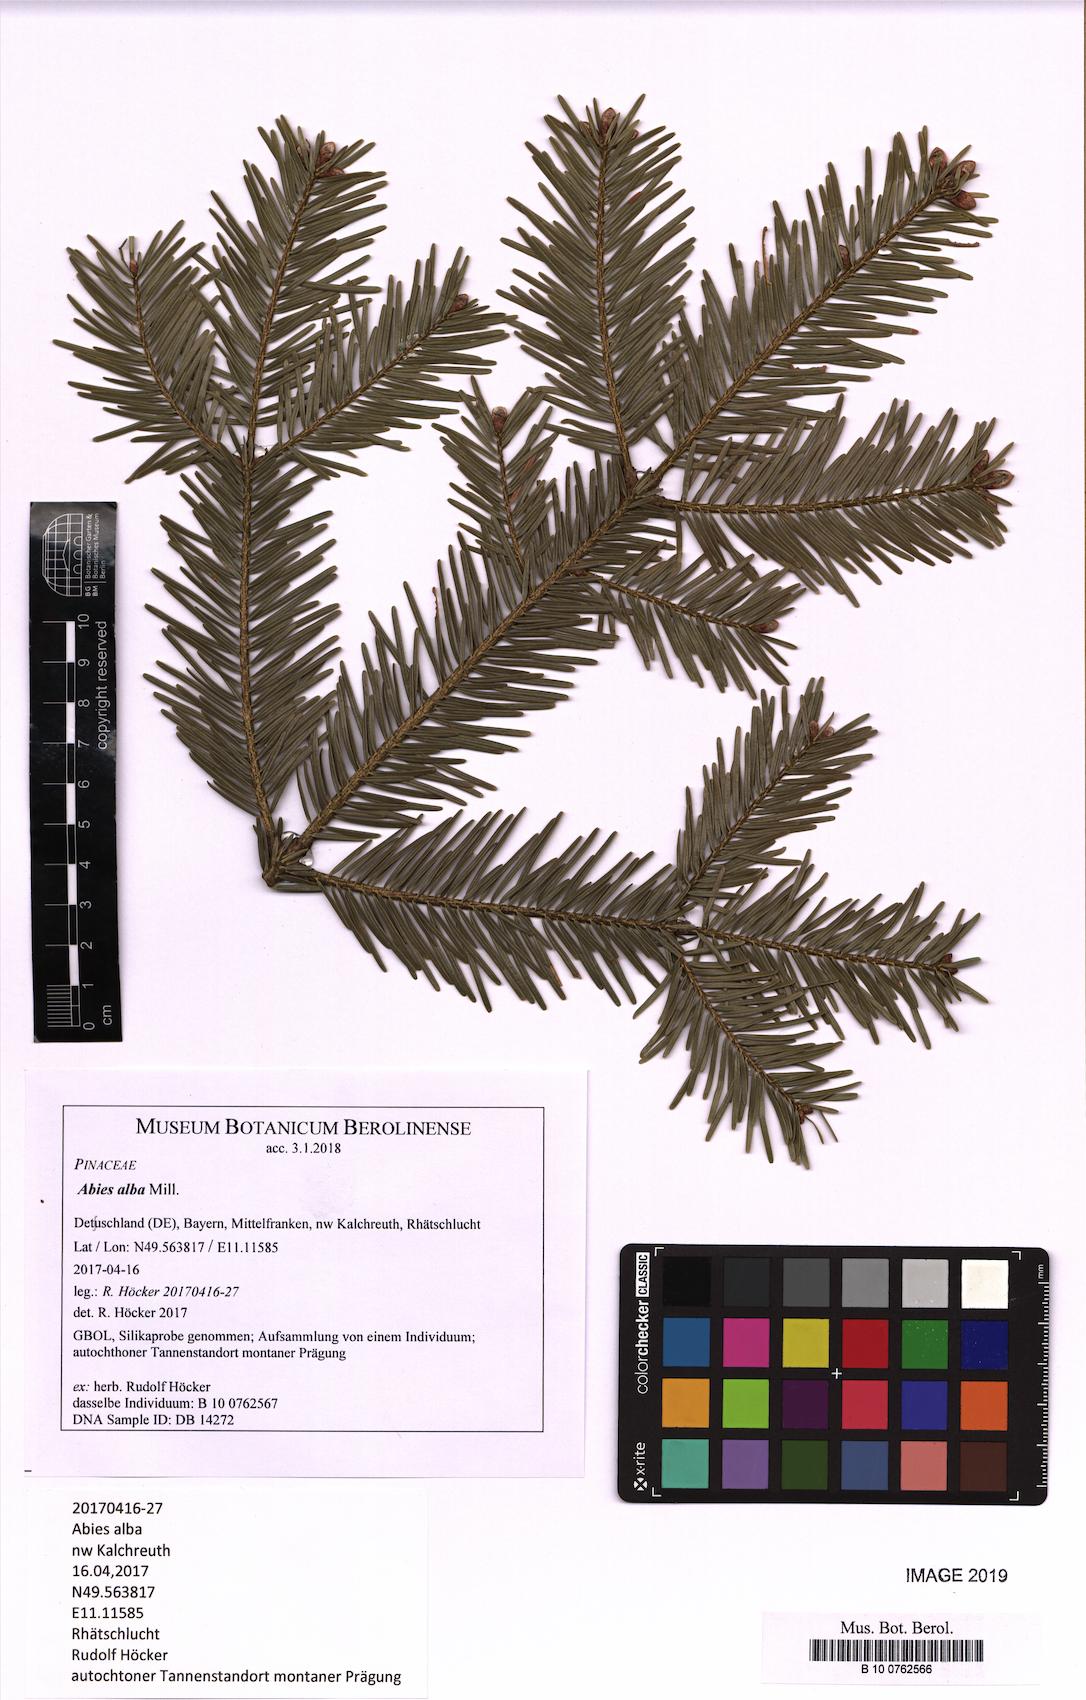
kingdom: Plantae
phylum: Tracheophyta
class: Pinopsida
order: Pinales
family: Pinaceae
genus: Abies
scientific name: Abies alba
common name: Silver fir
